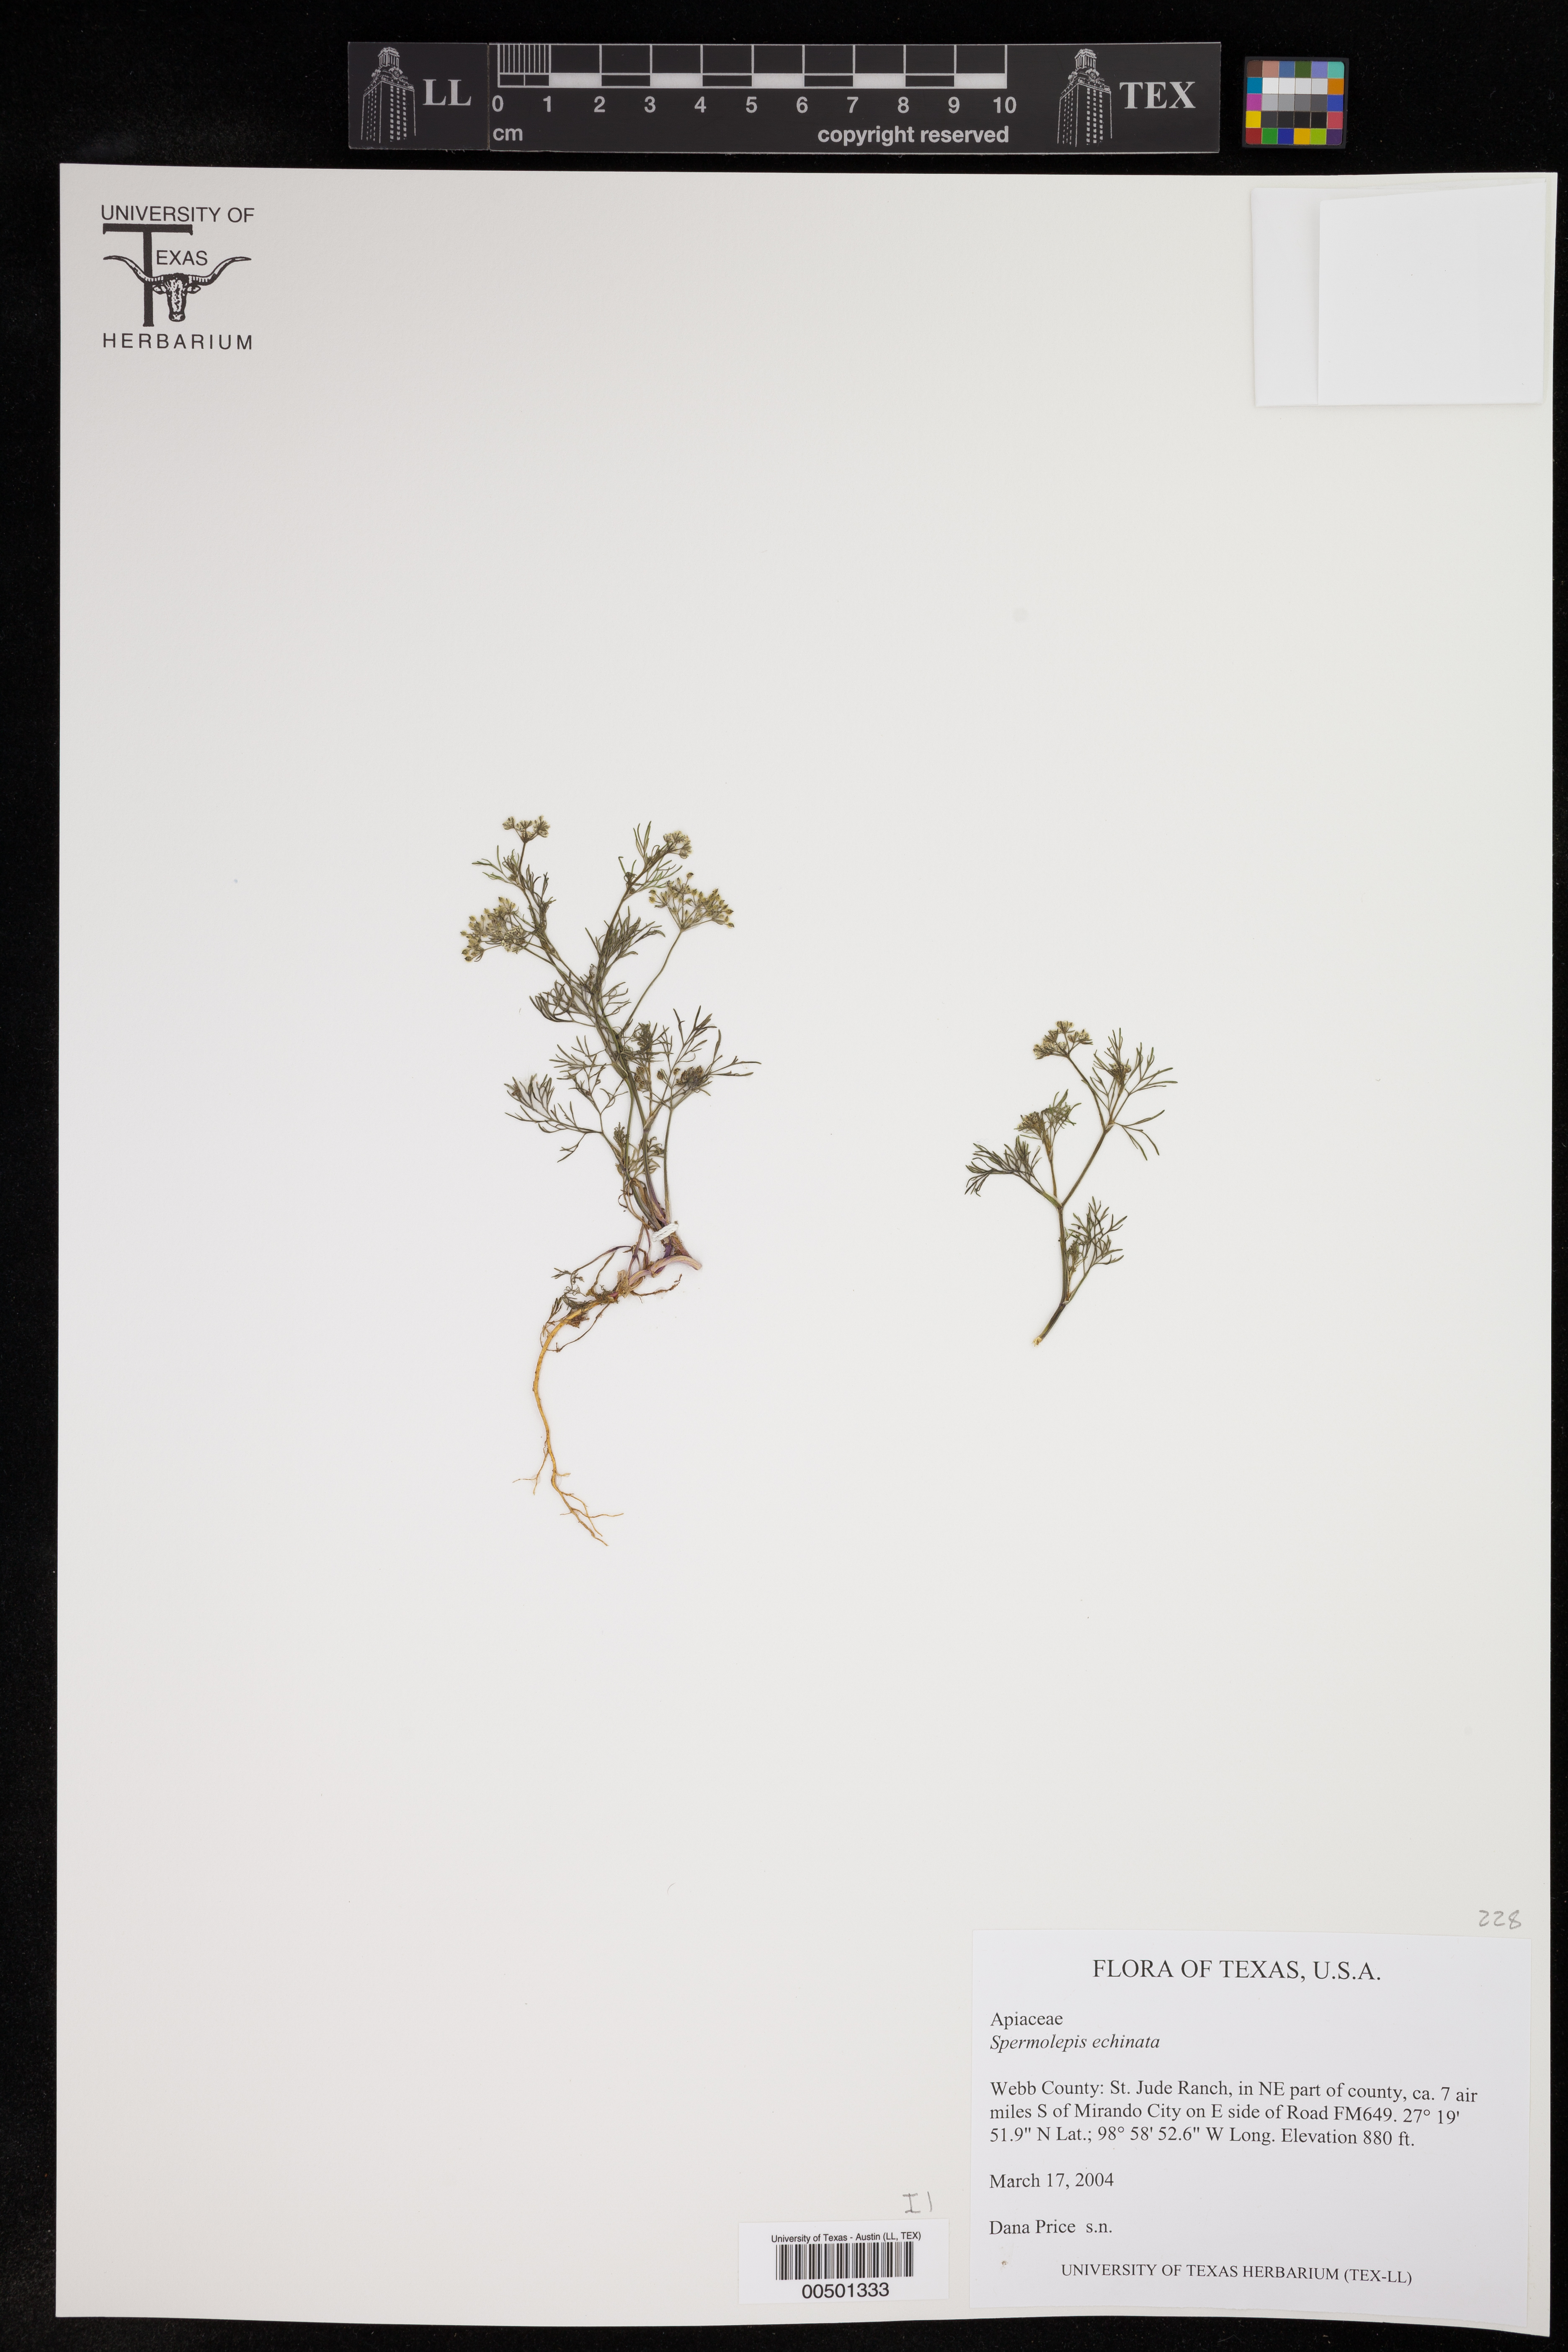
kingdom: Plantae
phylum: Tracheophyta
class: Magnoliopsida
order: Apiales
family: Apiaceae
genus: Spermolepis
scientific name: Spermolepis echinata
